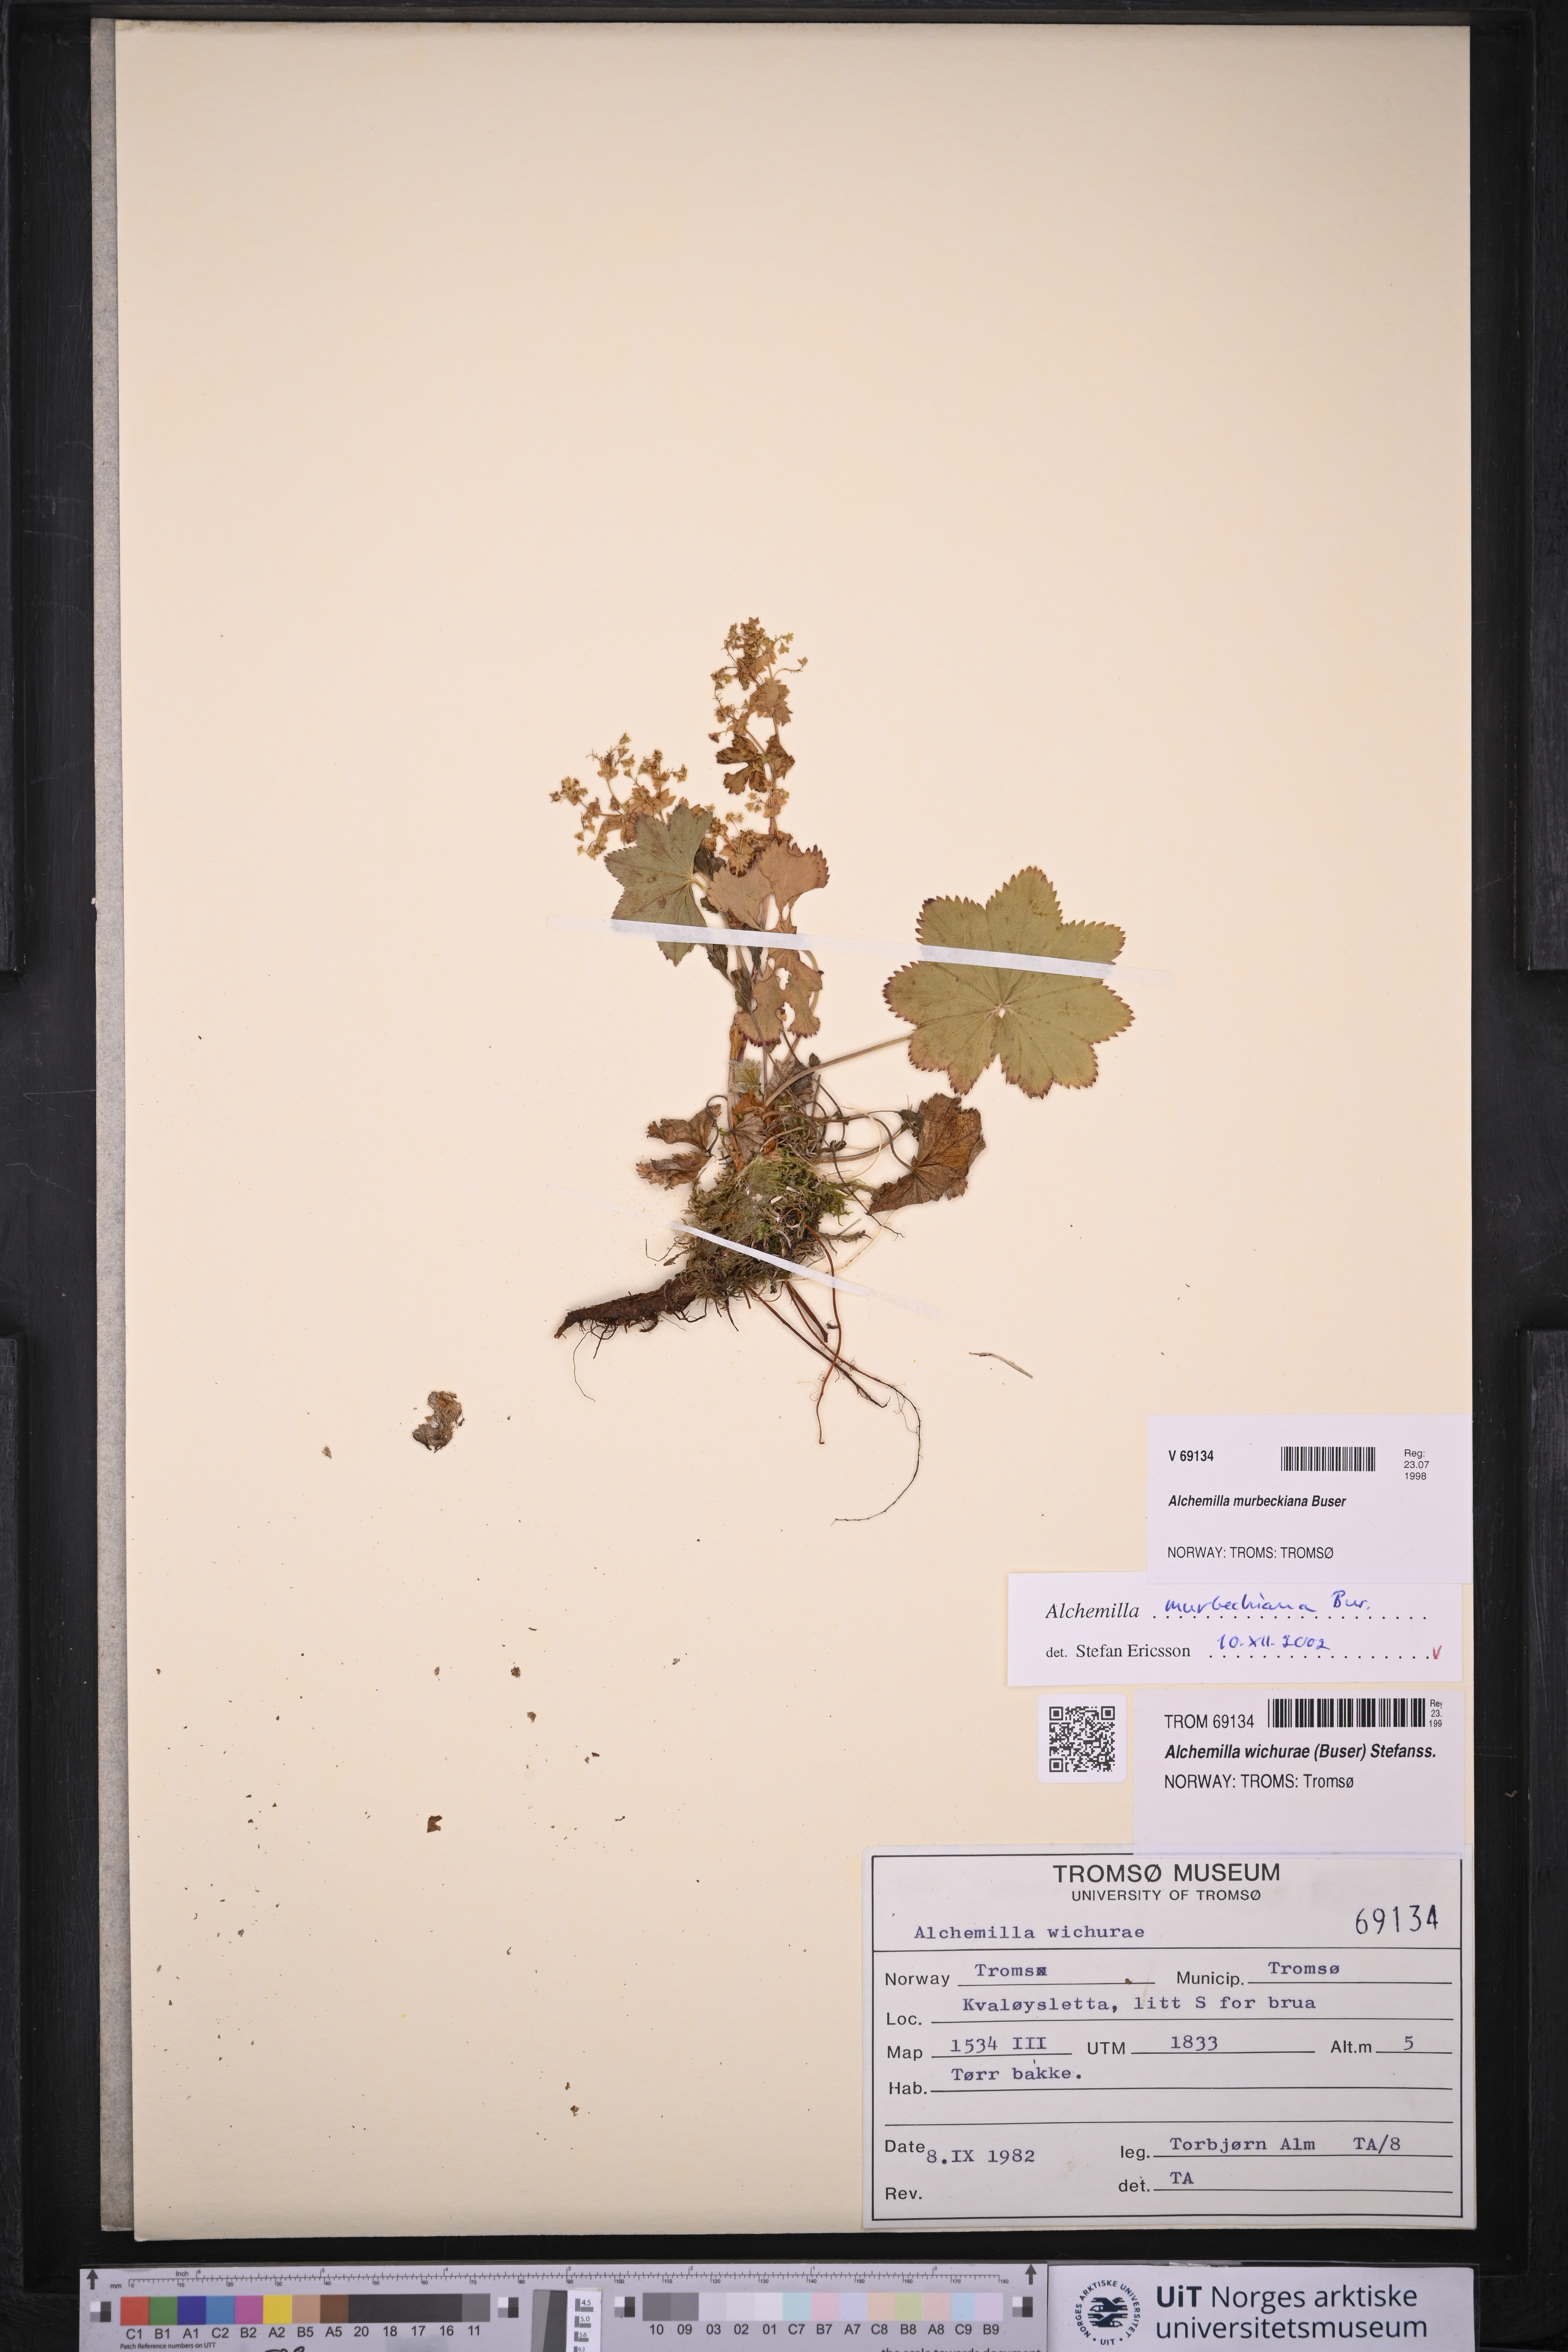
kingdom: Plantae
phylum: Tracheophyta
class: Magnoliopsida
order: Rosales
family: Rosaceae
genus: Alchemilla
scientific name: Alchemilla murbeckiana
